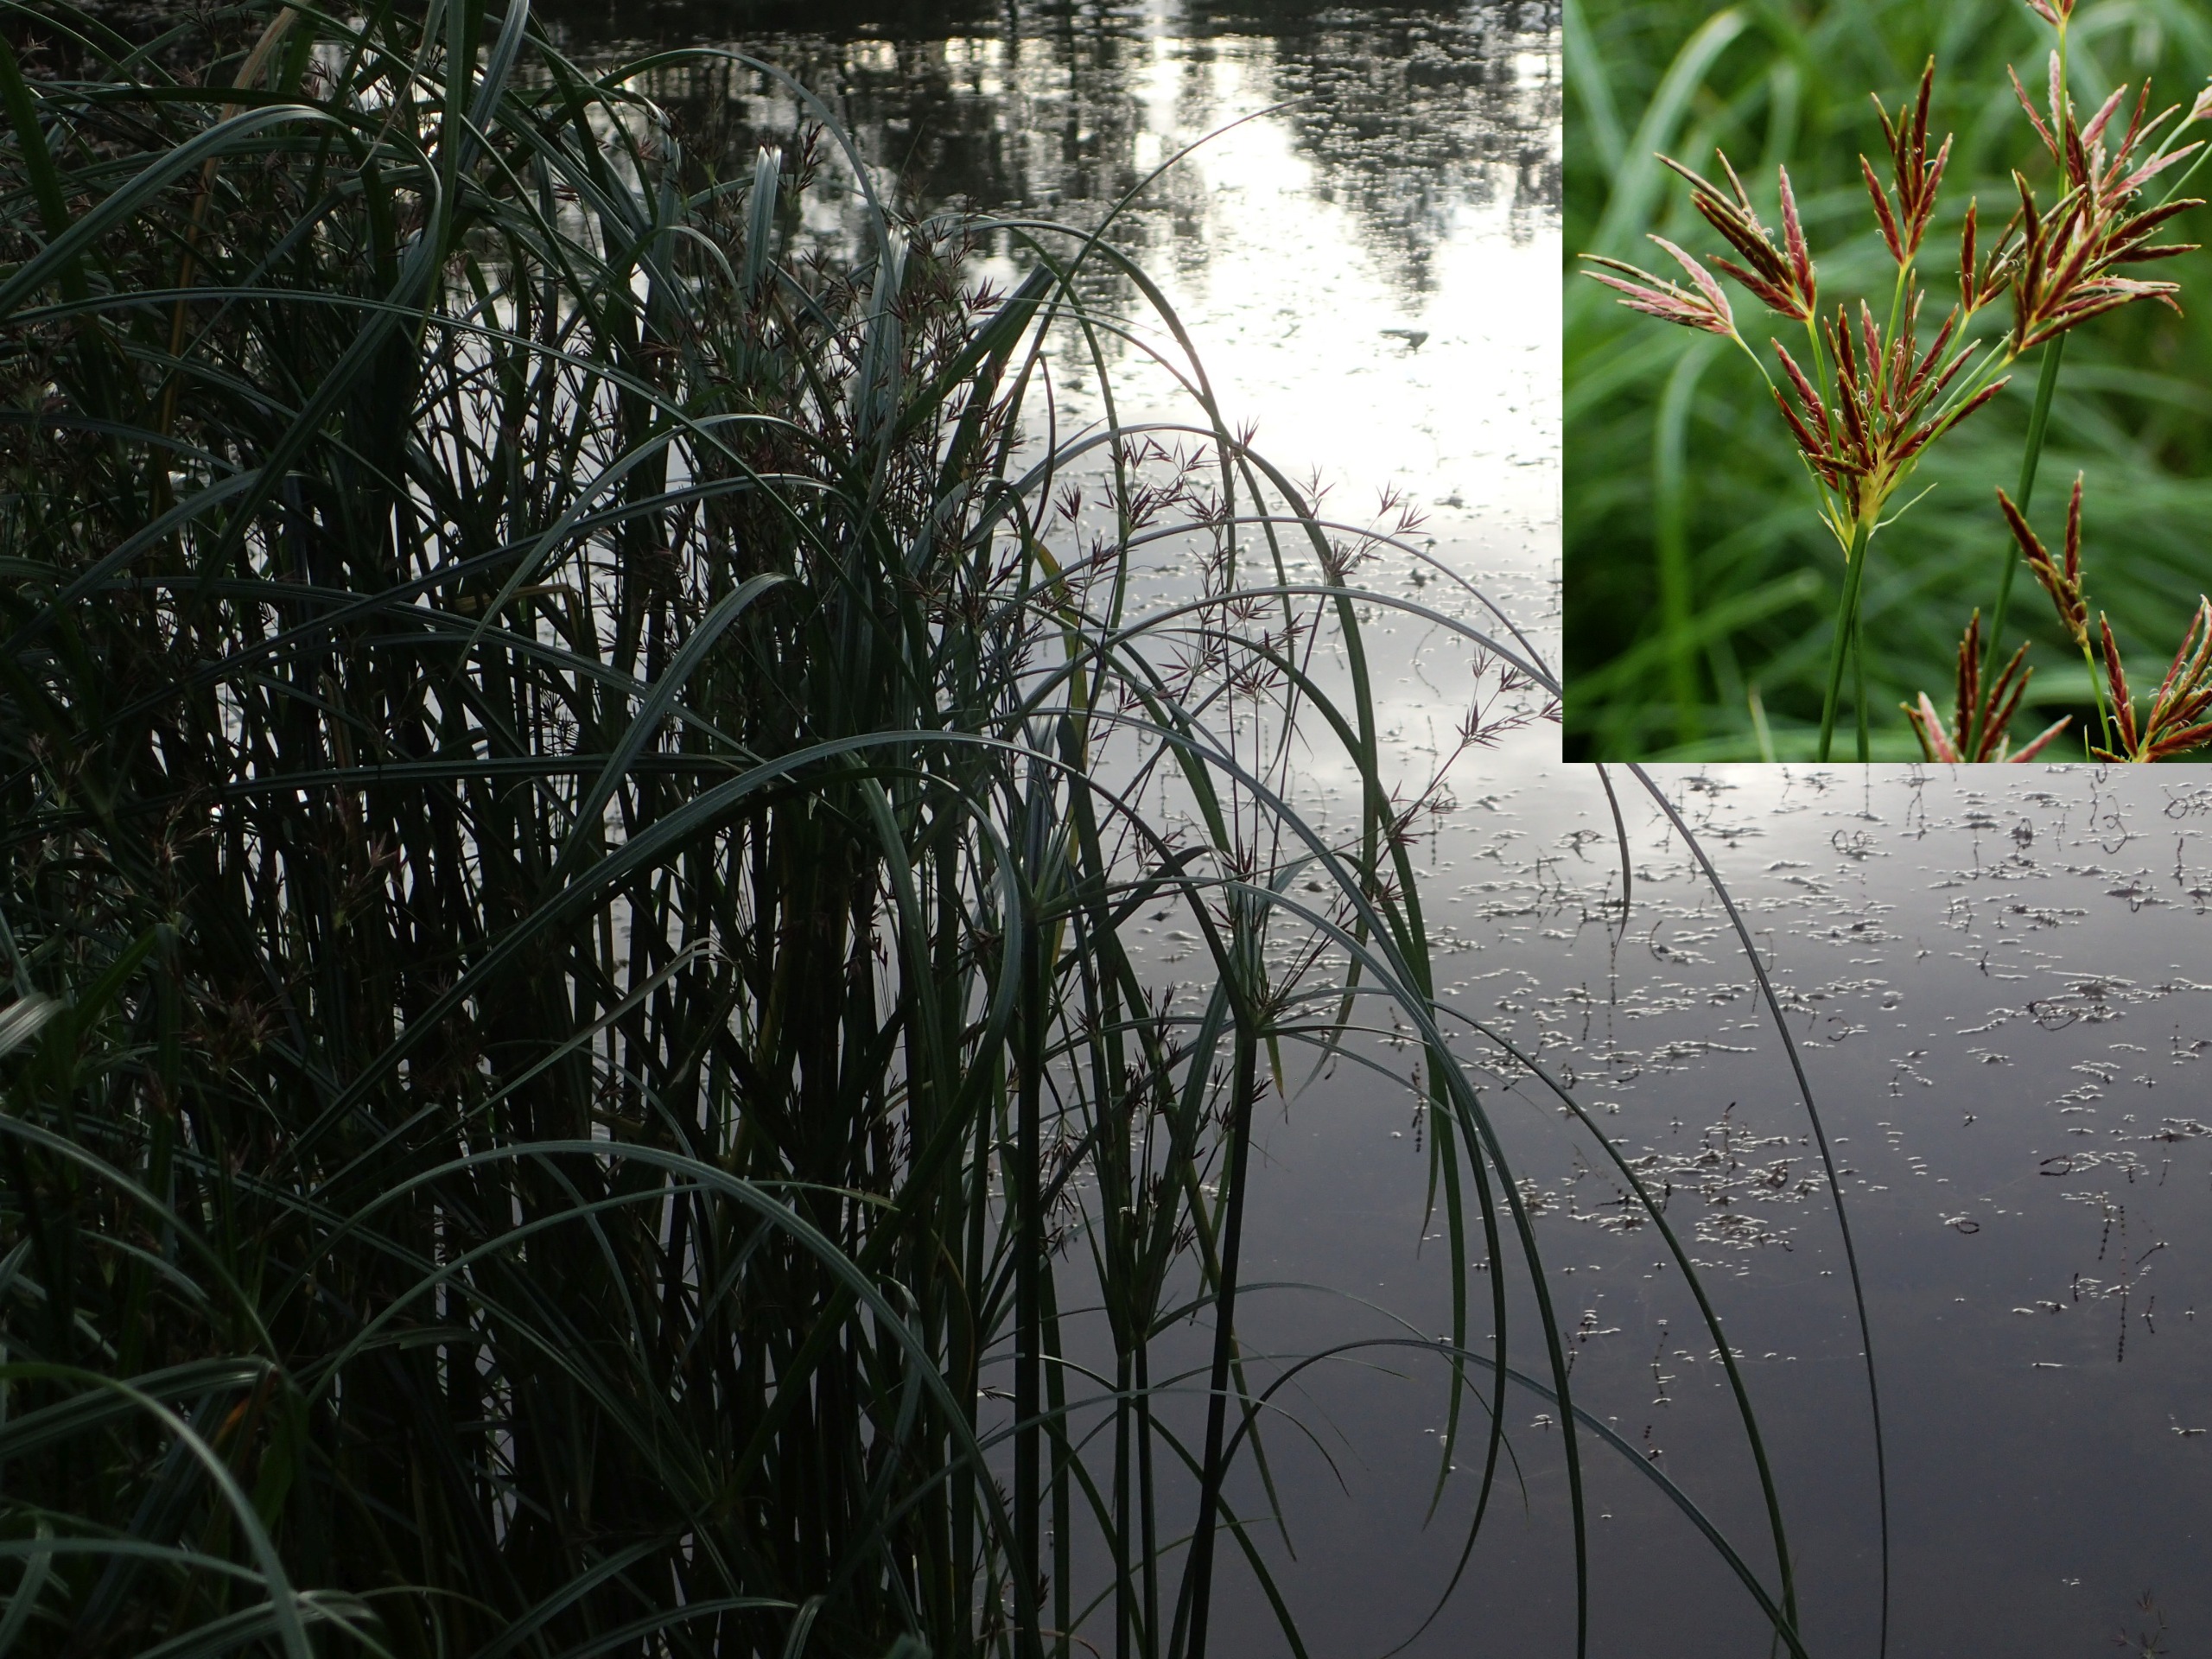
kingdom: Plantae
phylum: Tracheophyta
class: Liliopsida
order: Poales
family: Cyperaceae
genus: Cyperus
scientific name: Cyperus longus
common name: Smalbladet fladaks
